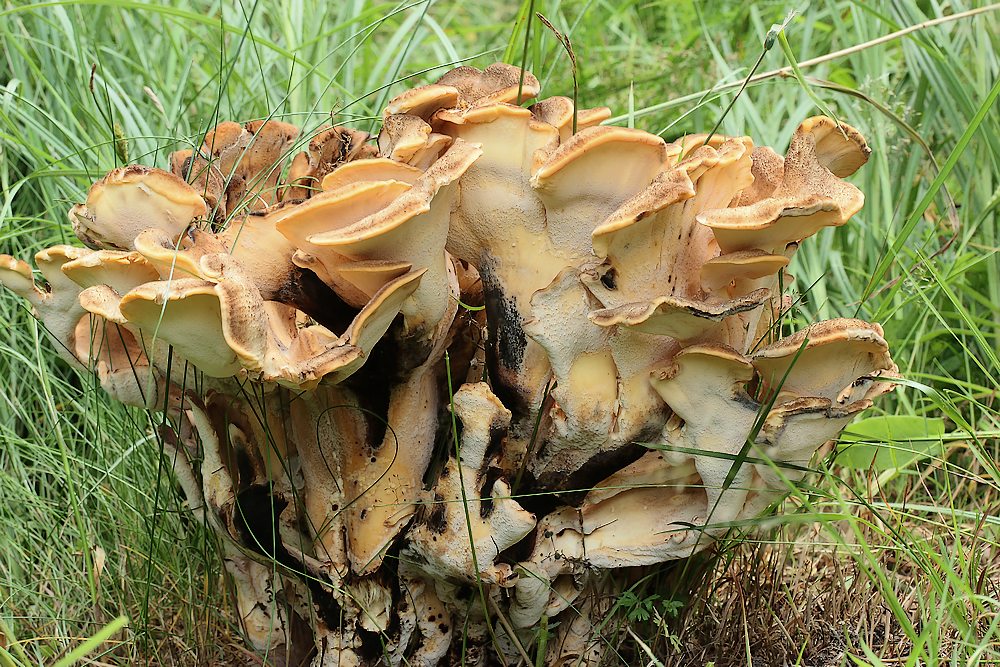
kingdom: Fungi
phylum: Basidiomycota
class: Agaricomycetes
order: Polyporales
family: Meripilaceae
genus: Meripilus
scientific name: Meripilus giganteus
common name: kæmpeporesvamp
